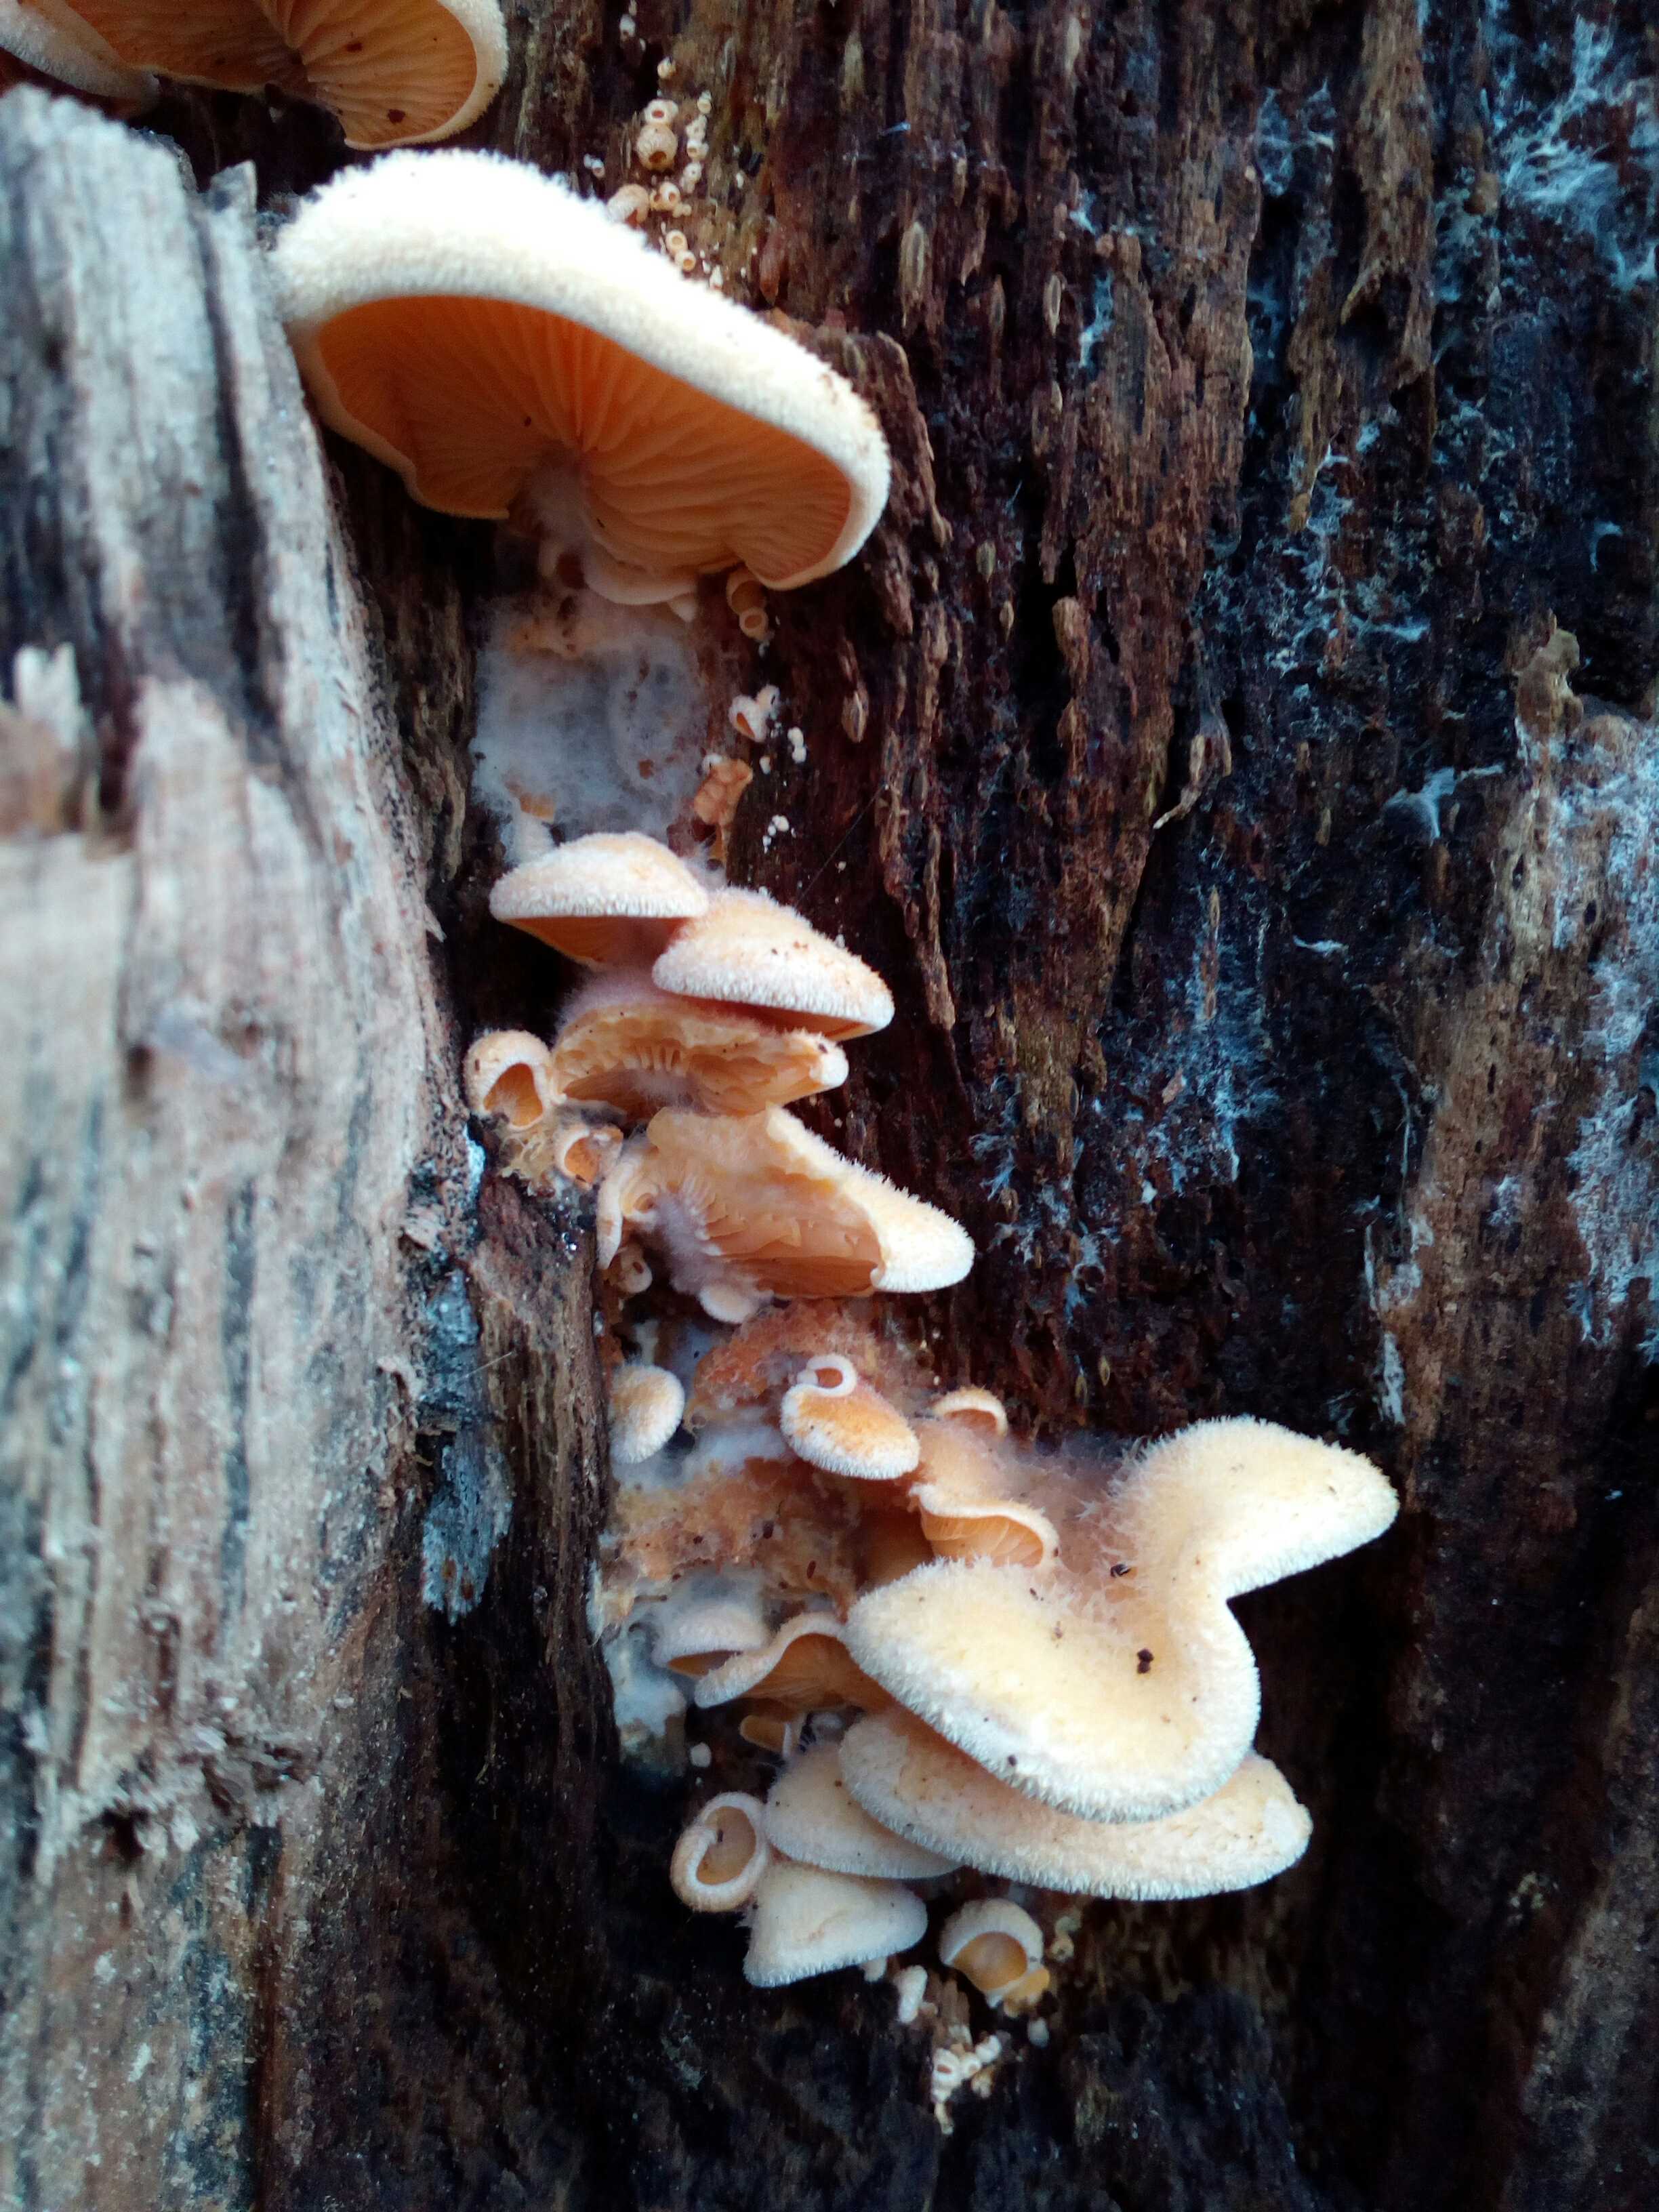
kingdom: Fungi
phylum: Basidiomycota
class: Agaricomycetes
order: Agaricales
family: Phyllotopsidaceae
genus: Phyllotopsis
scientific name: Phyllotopsis nidulans
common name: okkerblad
